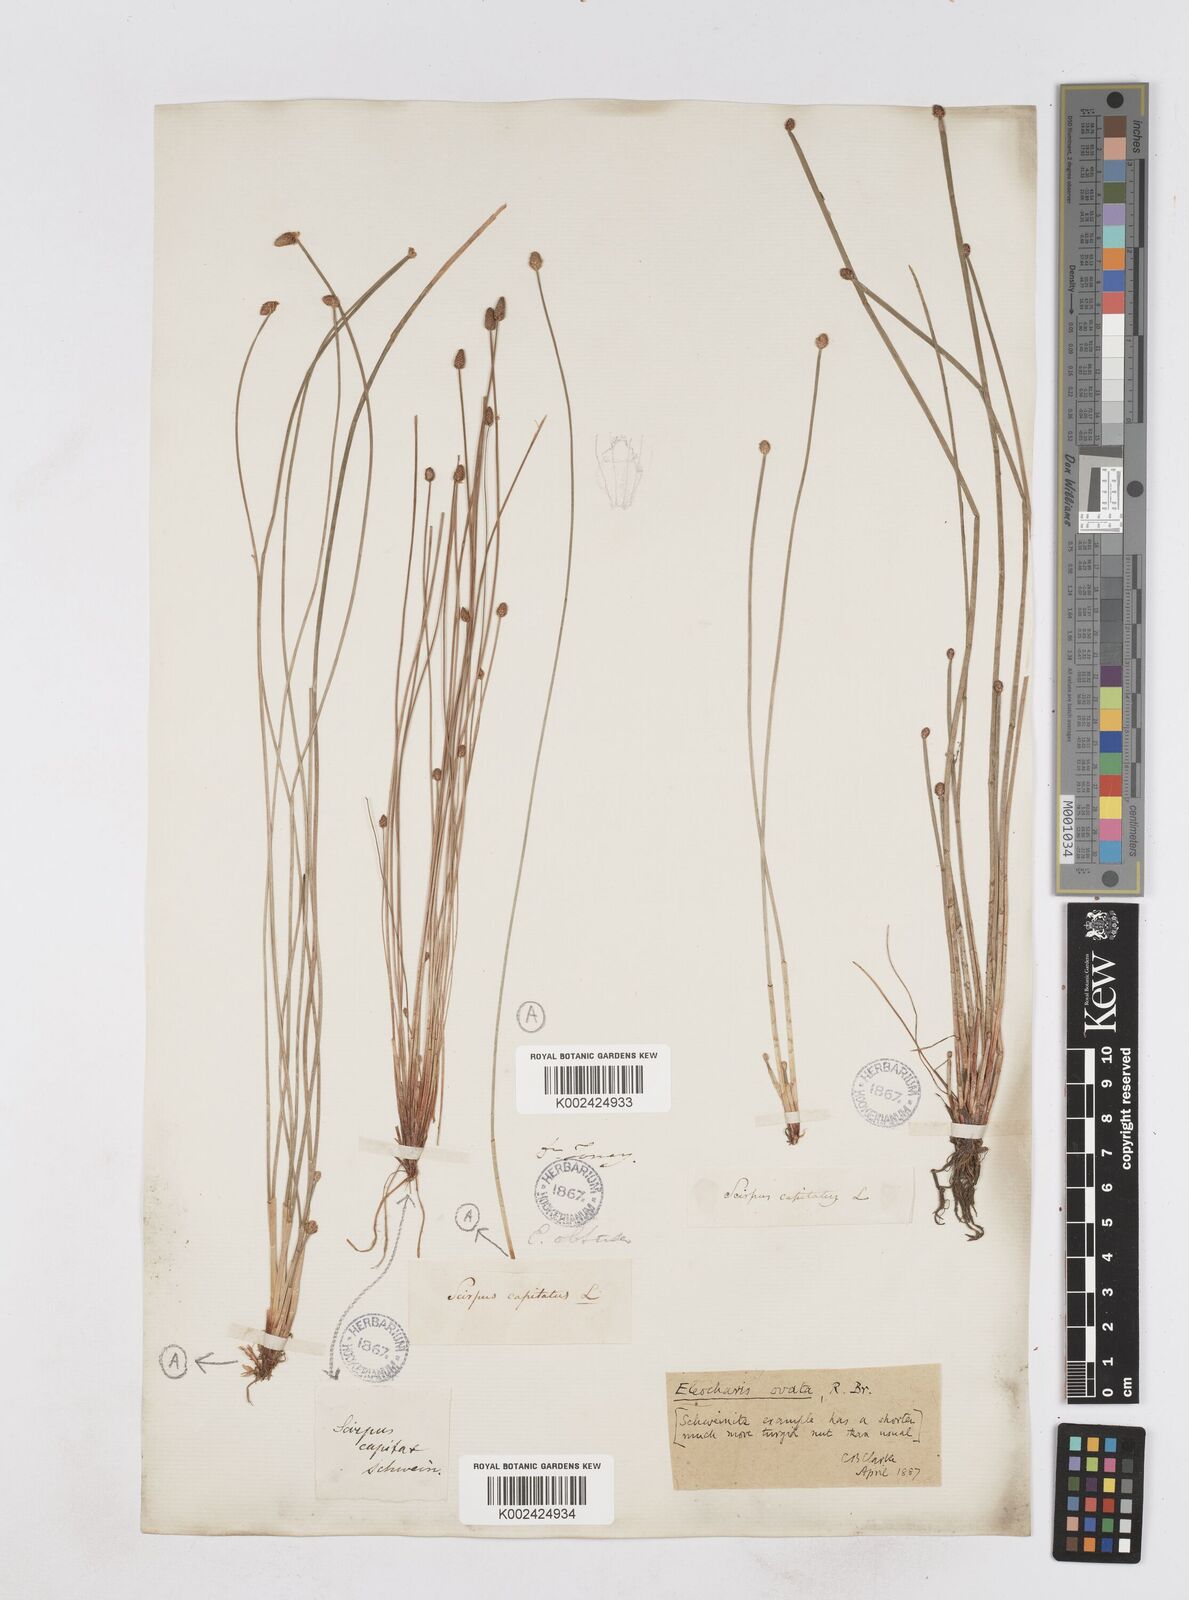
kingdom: Plantae
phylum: Tracheophyta
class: Liliopsida
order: Poales
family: Cyperaceae
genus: Eleocharis
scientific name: Eleocharis ovata
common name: Oval spike-rush
